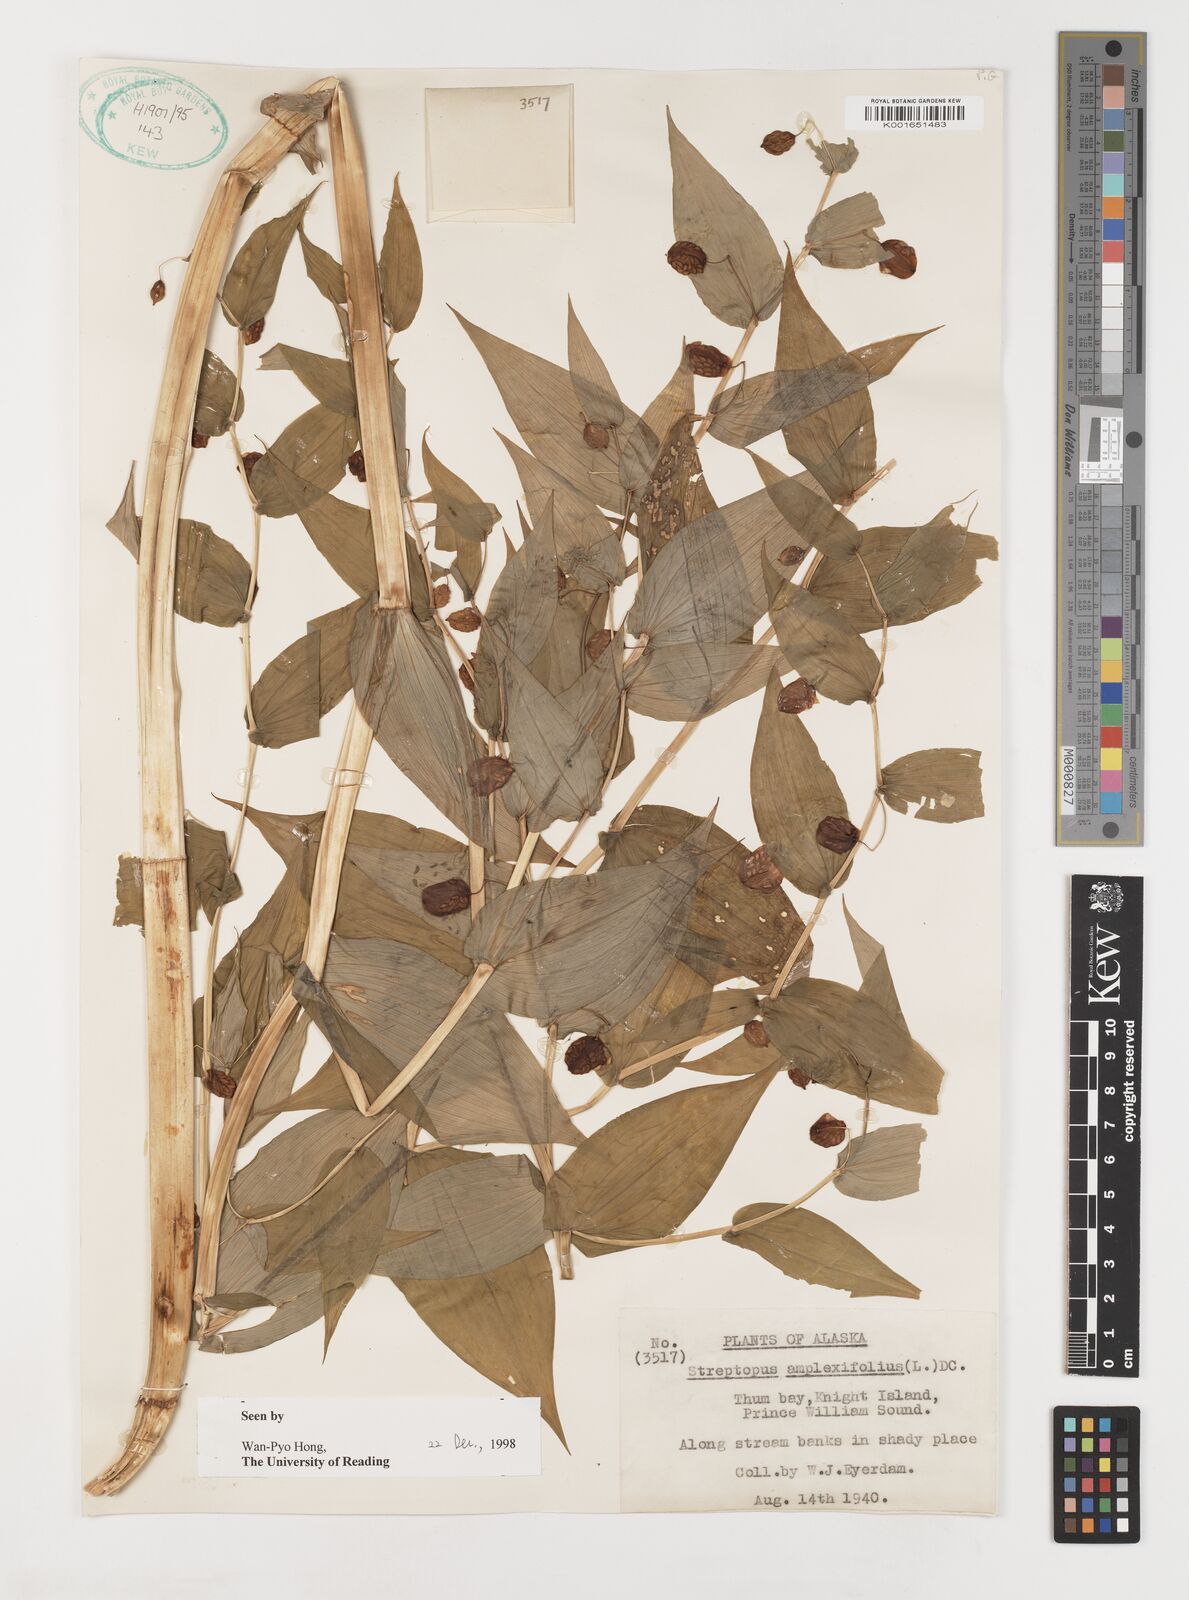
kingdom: Plantae
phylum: Tracheophyta
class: Liliopsida
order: Liliales
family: Liliaceae
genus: Streptopus
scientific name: Streptopus amplexifolius
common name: Clasp twisted stalk
